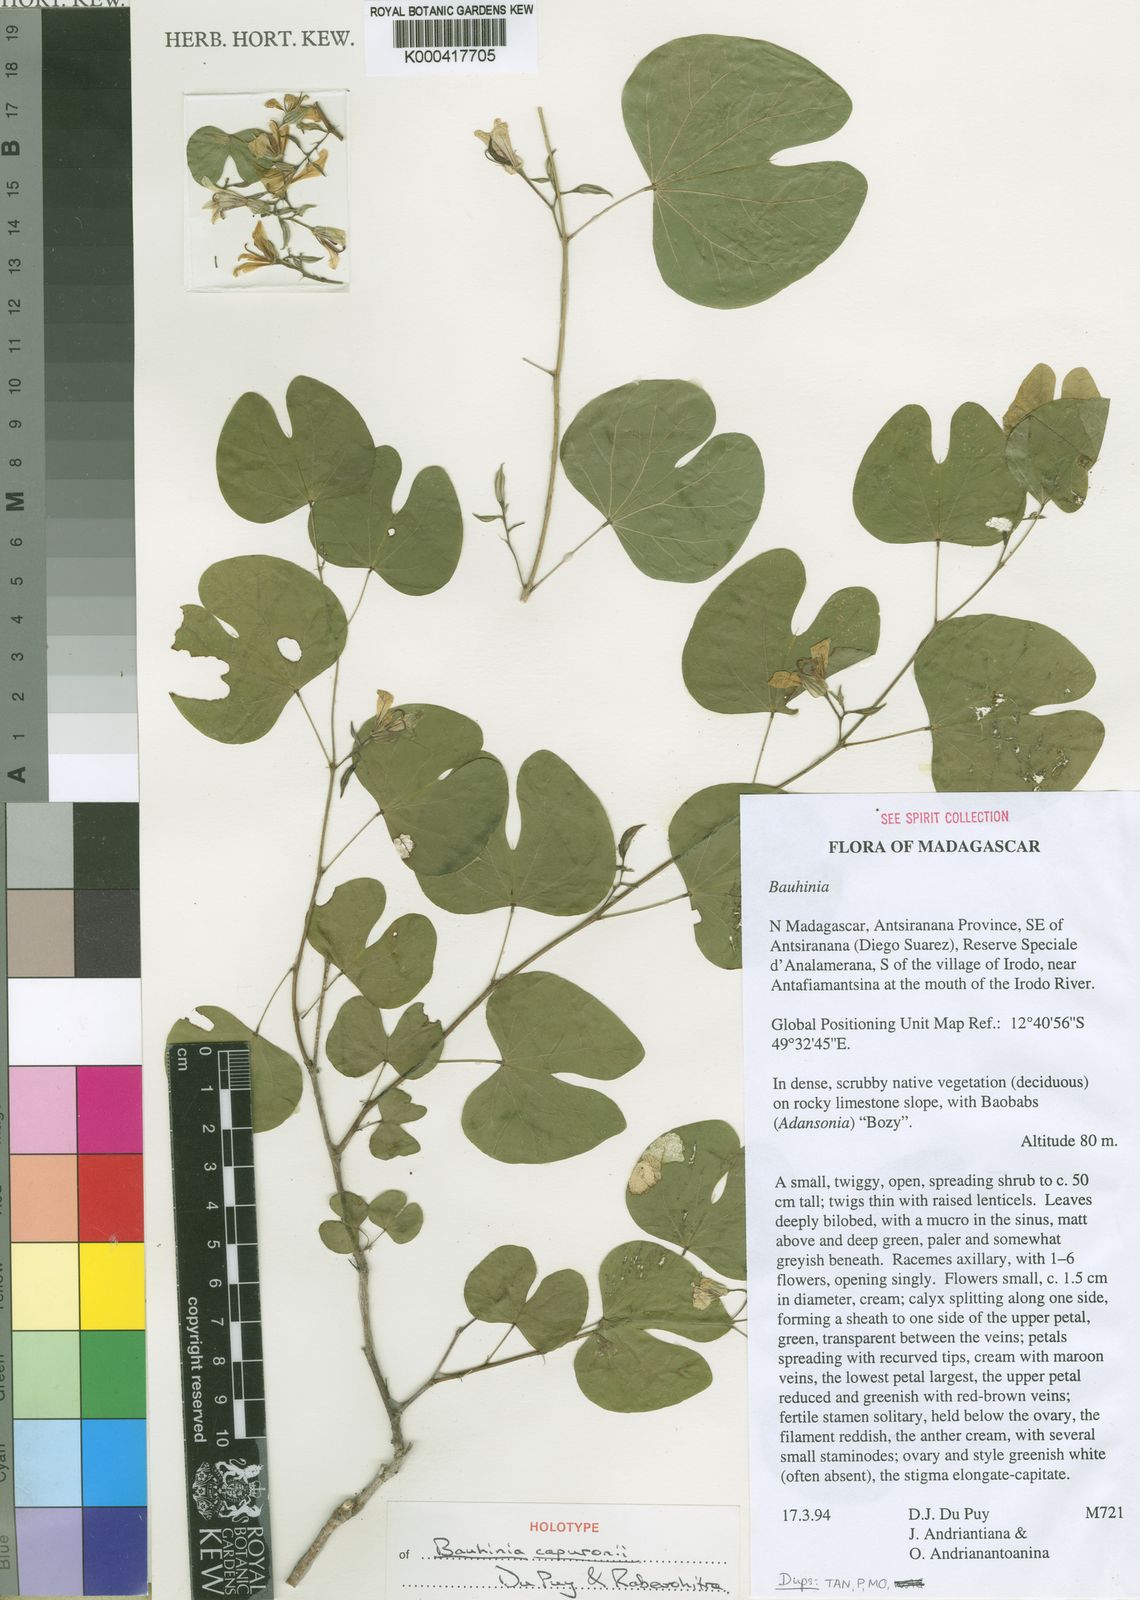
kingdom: Plantae
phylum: Tracheophyta
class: Magnoliopsida
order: Fabales
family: Fabaceae
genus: Bauhinia
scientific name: Bauhinia capuronii
